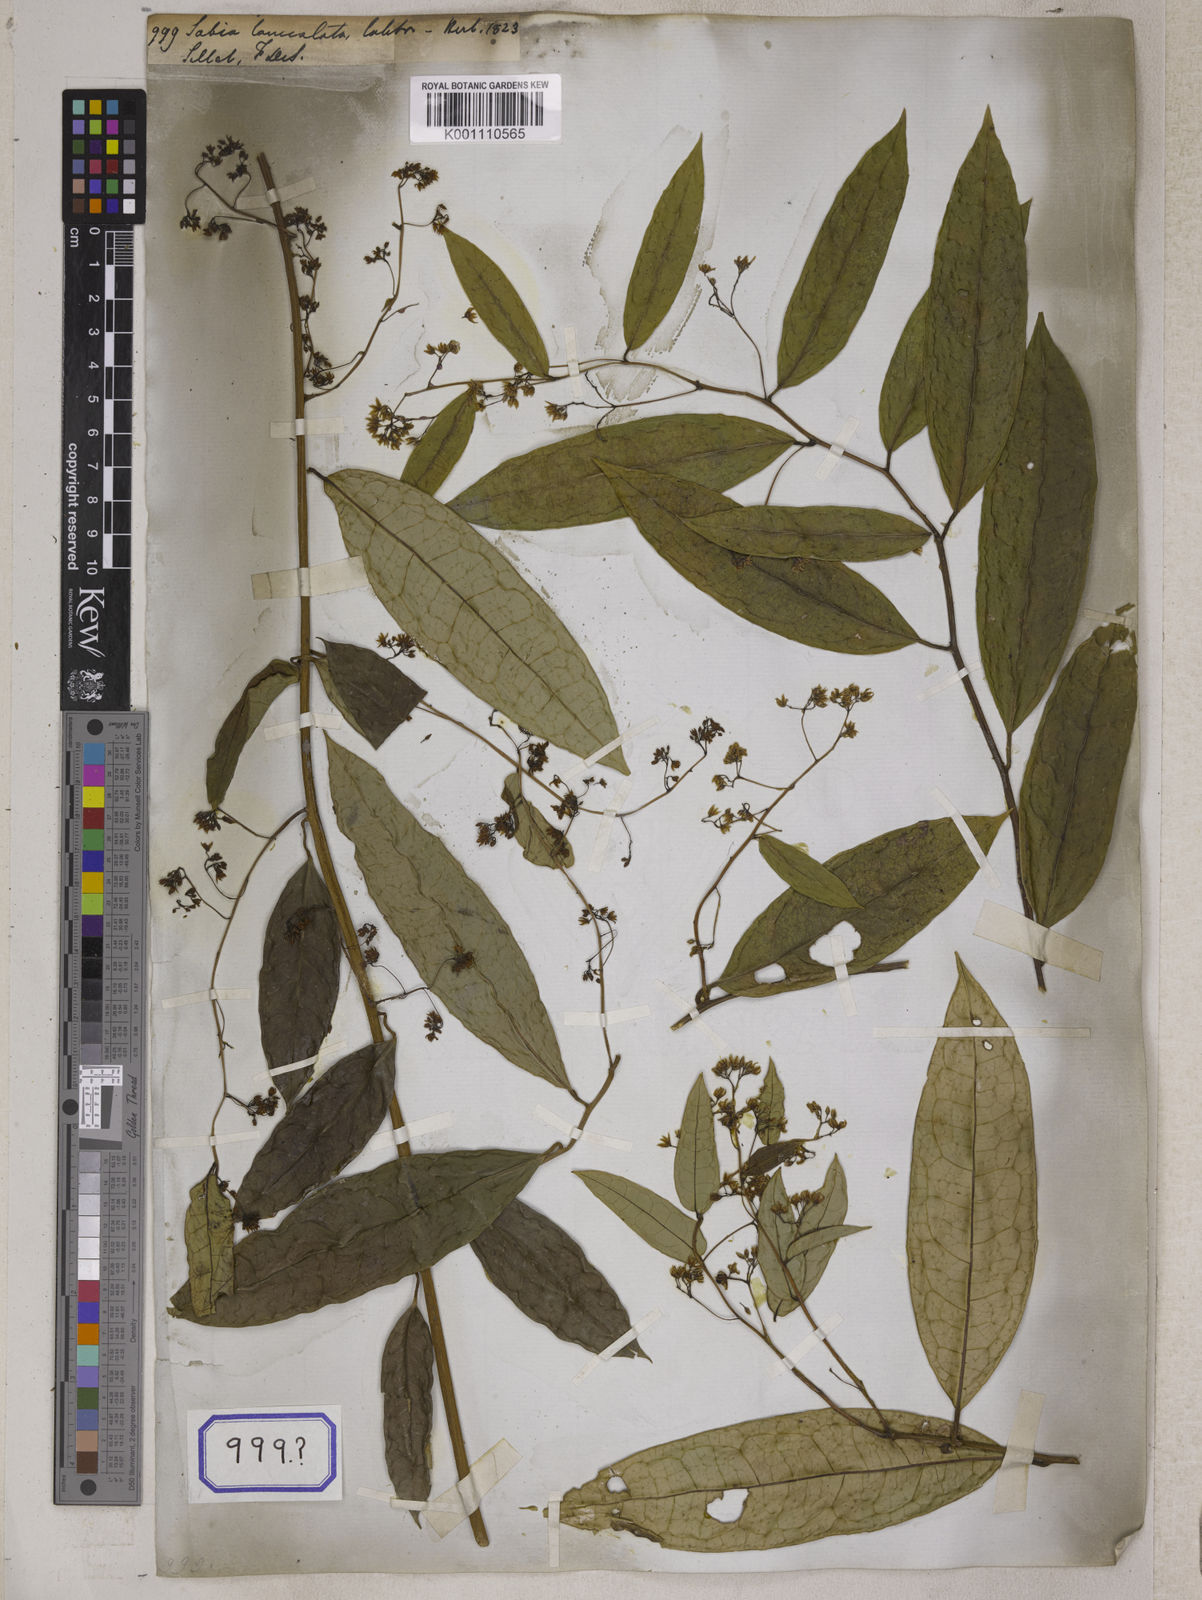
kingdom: Plantae
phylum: Tracheophyta
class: Magnoliopsida
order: Proteales
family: Sabiaceae
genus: Sabia
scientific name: Sabia lanceolata
